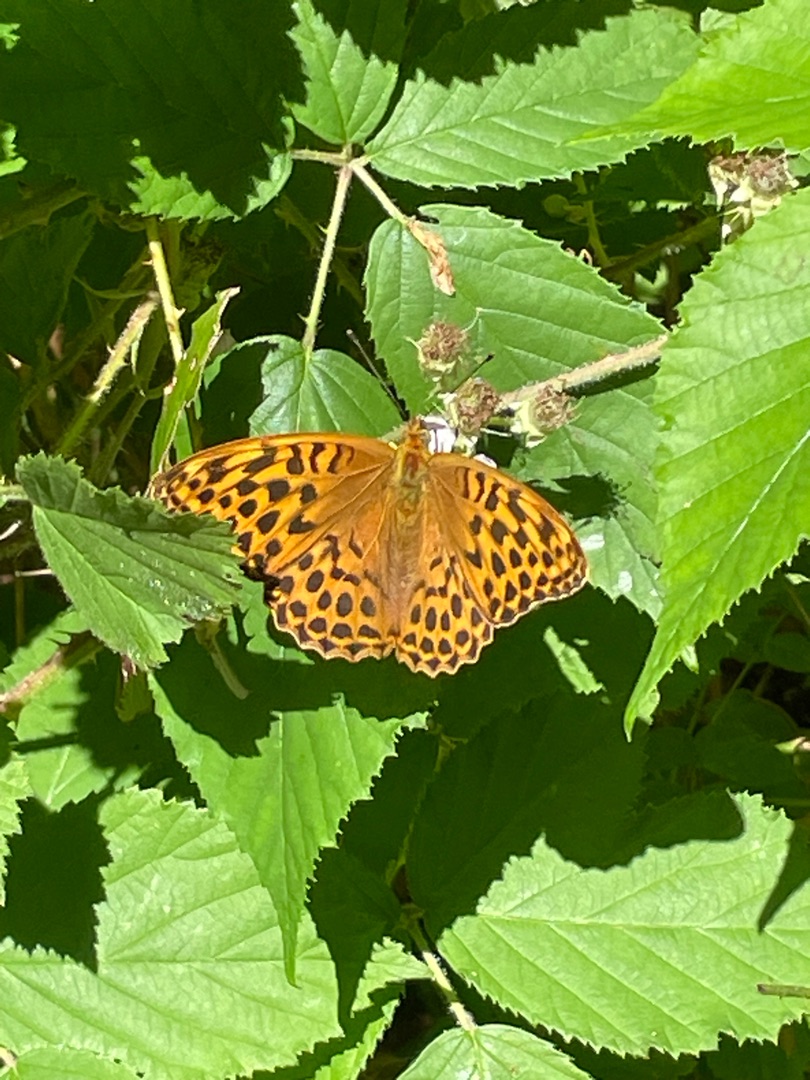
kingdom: Animalia
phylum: Arthropoda
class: Insecta
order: Lepidoptera
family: Nymphalidae
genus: Argynnis
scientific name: Argynnis paphia
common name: Kejserkåbe
